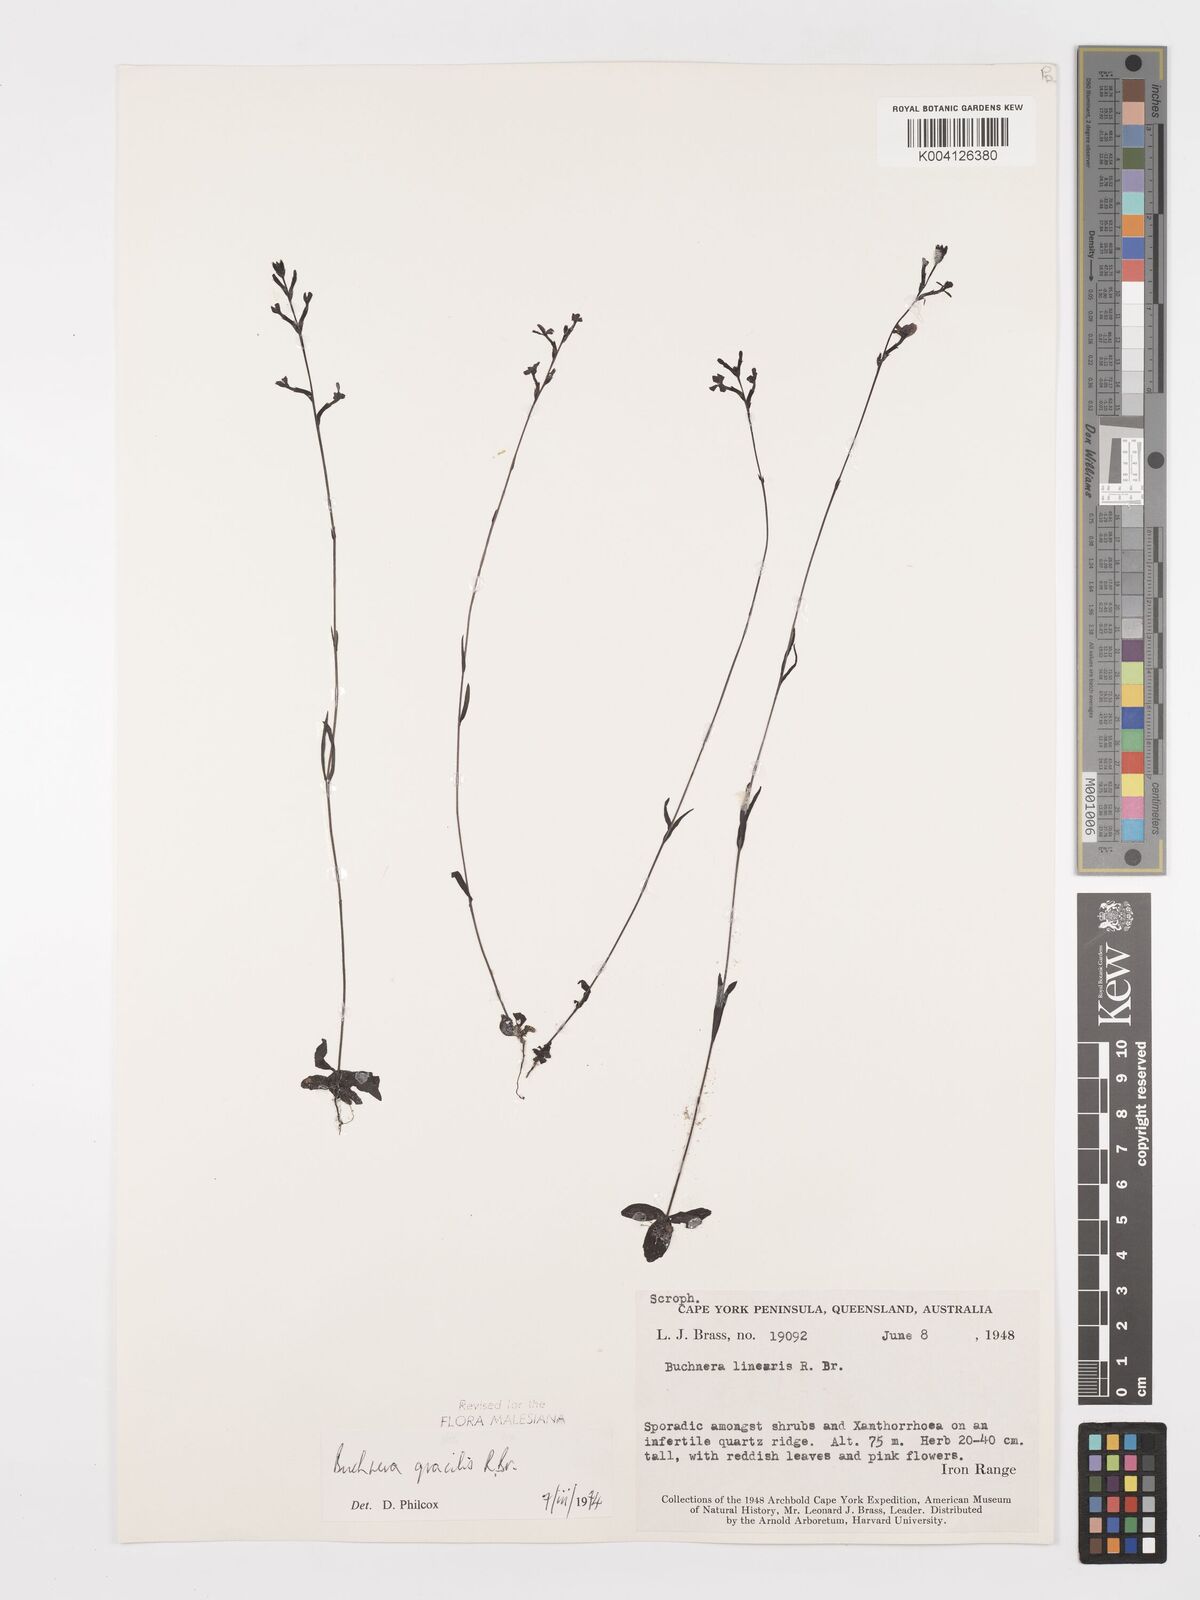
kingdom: Plantae
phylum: Tracheophyta
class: Magnoliopsida
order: Lamiales
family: Orobanchaceae
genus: Buchnera
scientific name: Buchnera gracilis
